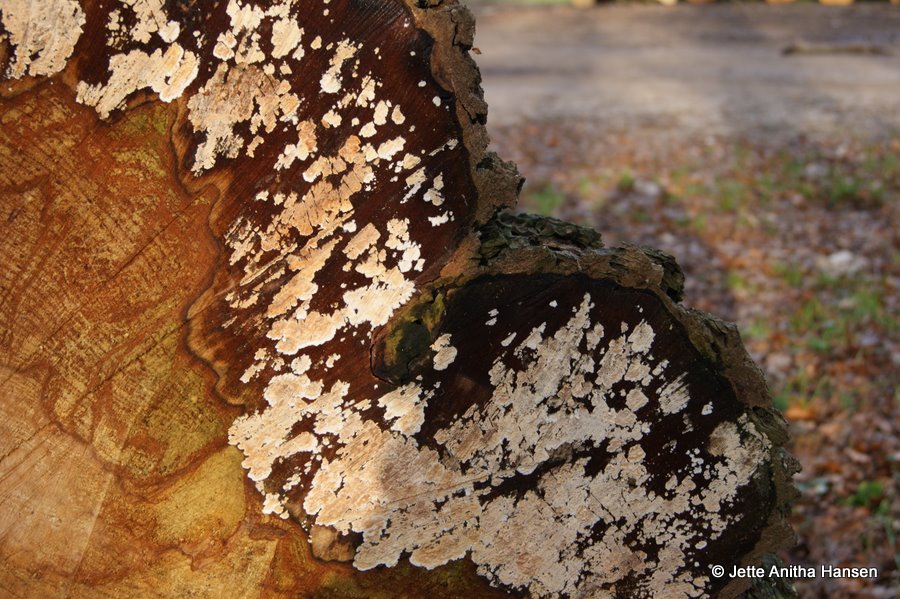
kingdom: Fungi
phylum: Basidiomycota
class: Agaricomycetes
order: Agaricales
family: Physalacriaceae
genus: Cylindrobasidium
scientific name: Cylindrobasidium evolvens
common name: sprækkehinde
